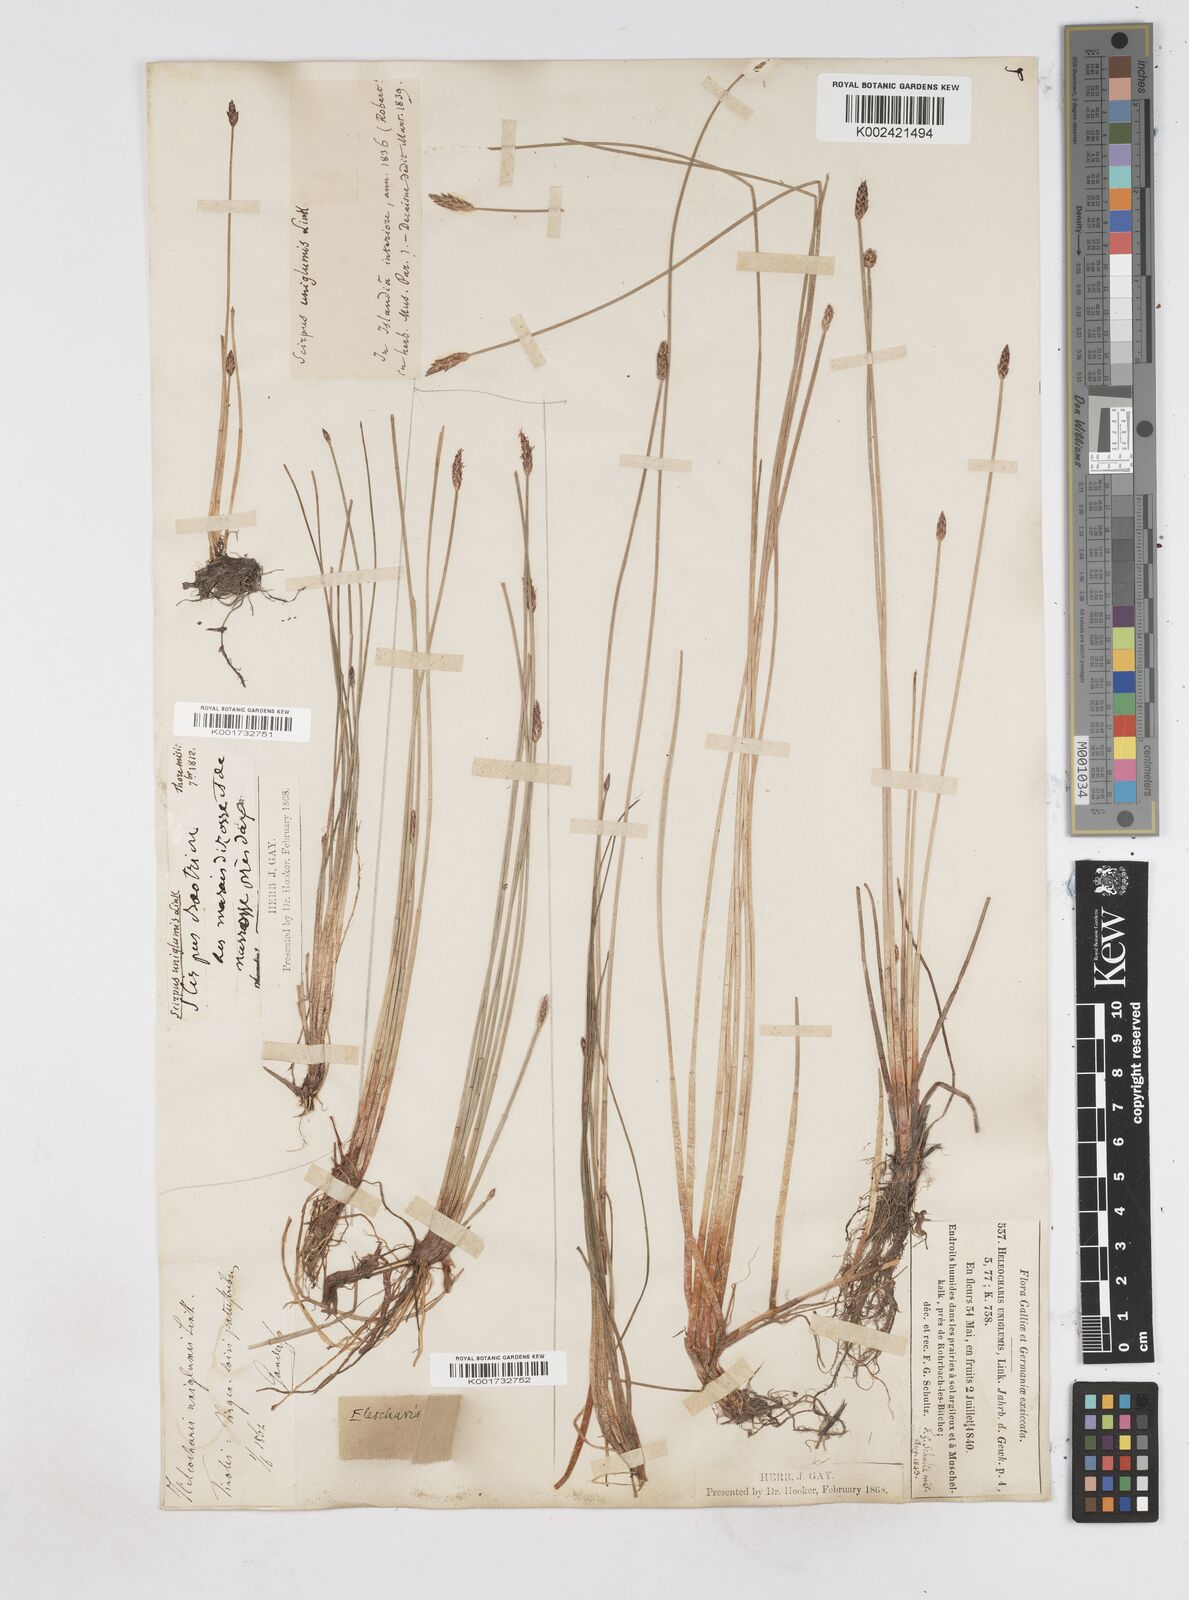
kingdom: Plantae
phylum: Tracheophyta
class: Liliopsida
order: Poales
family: Cyperaceae
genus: Eleocharis
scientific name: Eleocharis uniglumis
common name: Slender spike-rush
